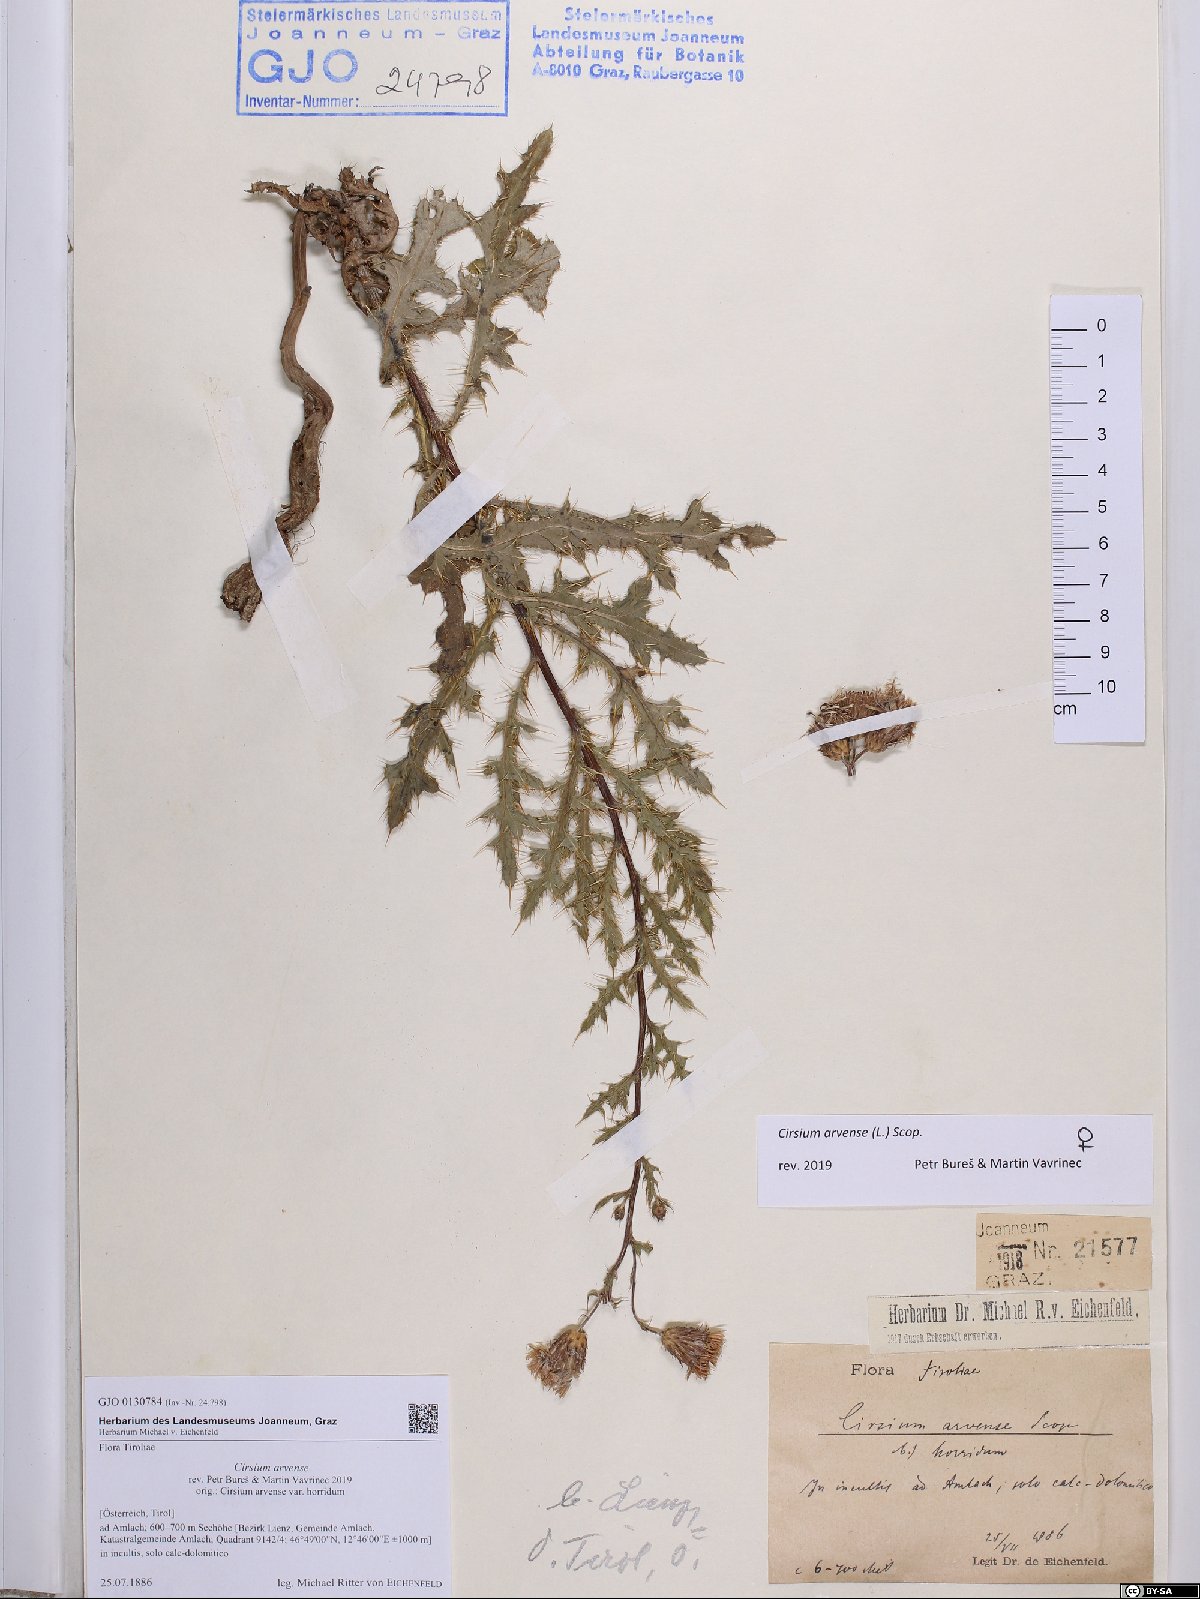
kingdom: Plantae
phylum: Tracheophyta
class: Magnoliopsida
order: Asterales
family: Asteraceae
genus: Cirsium
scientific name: Cirsium arvense
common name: Creeping thistle
